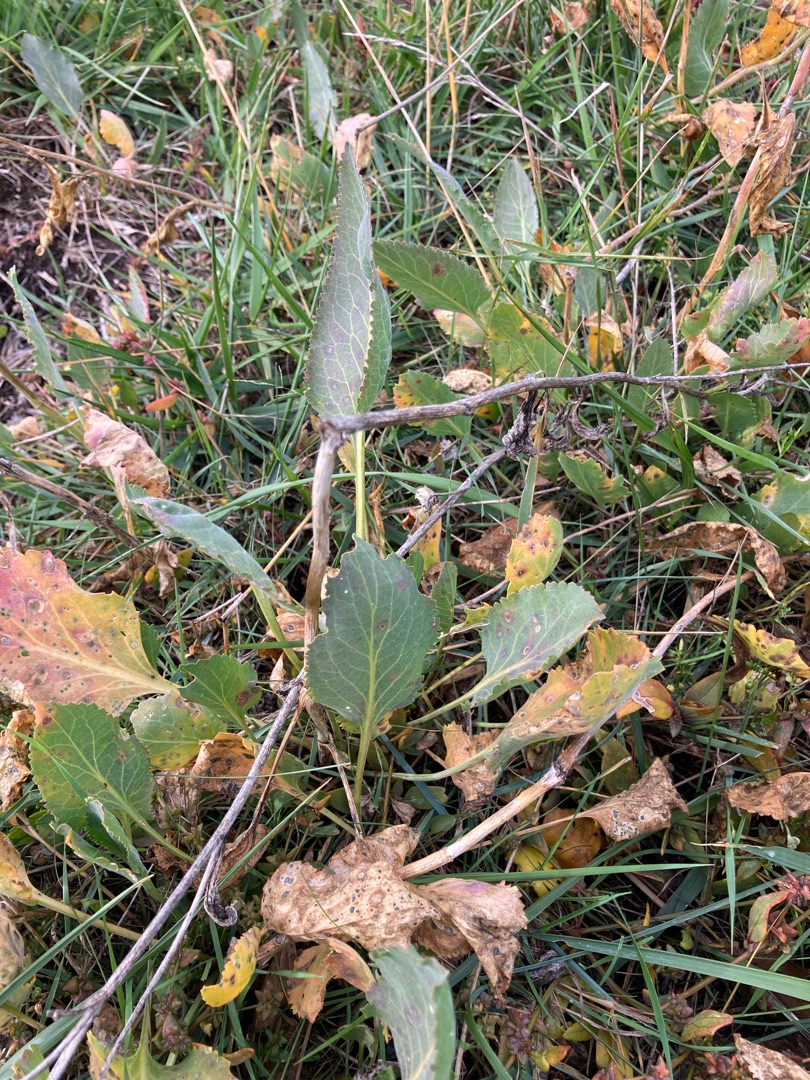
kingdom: Plantae
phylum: Tracheophyta
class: Magnoliopsida
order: Brassicales
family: Brassicaceae
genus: Lepidium
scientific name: Lepidium latifolium
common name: Strand-karse
